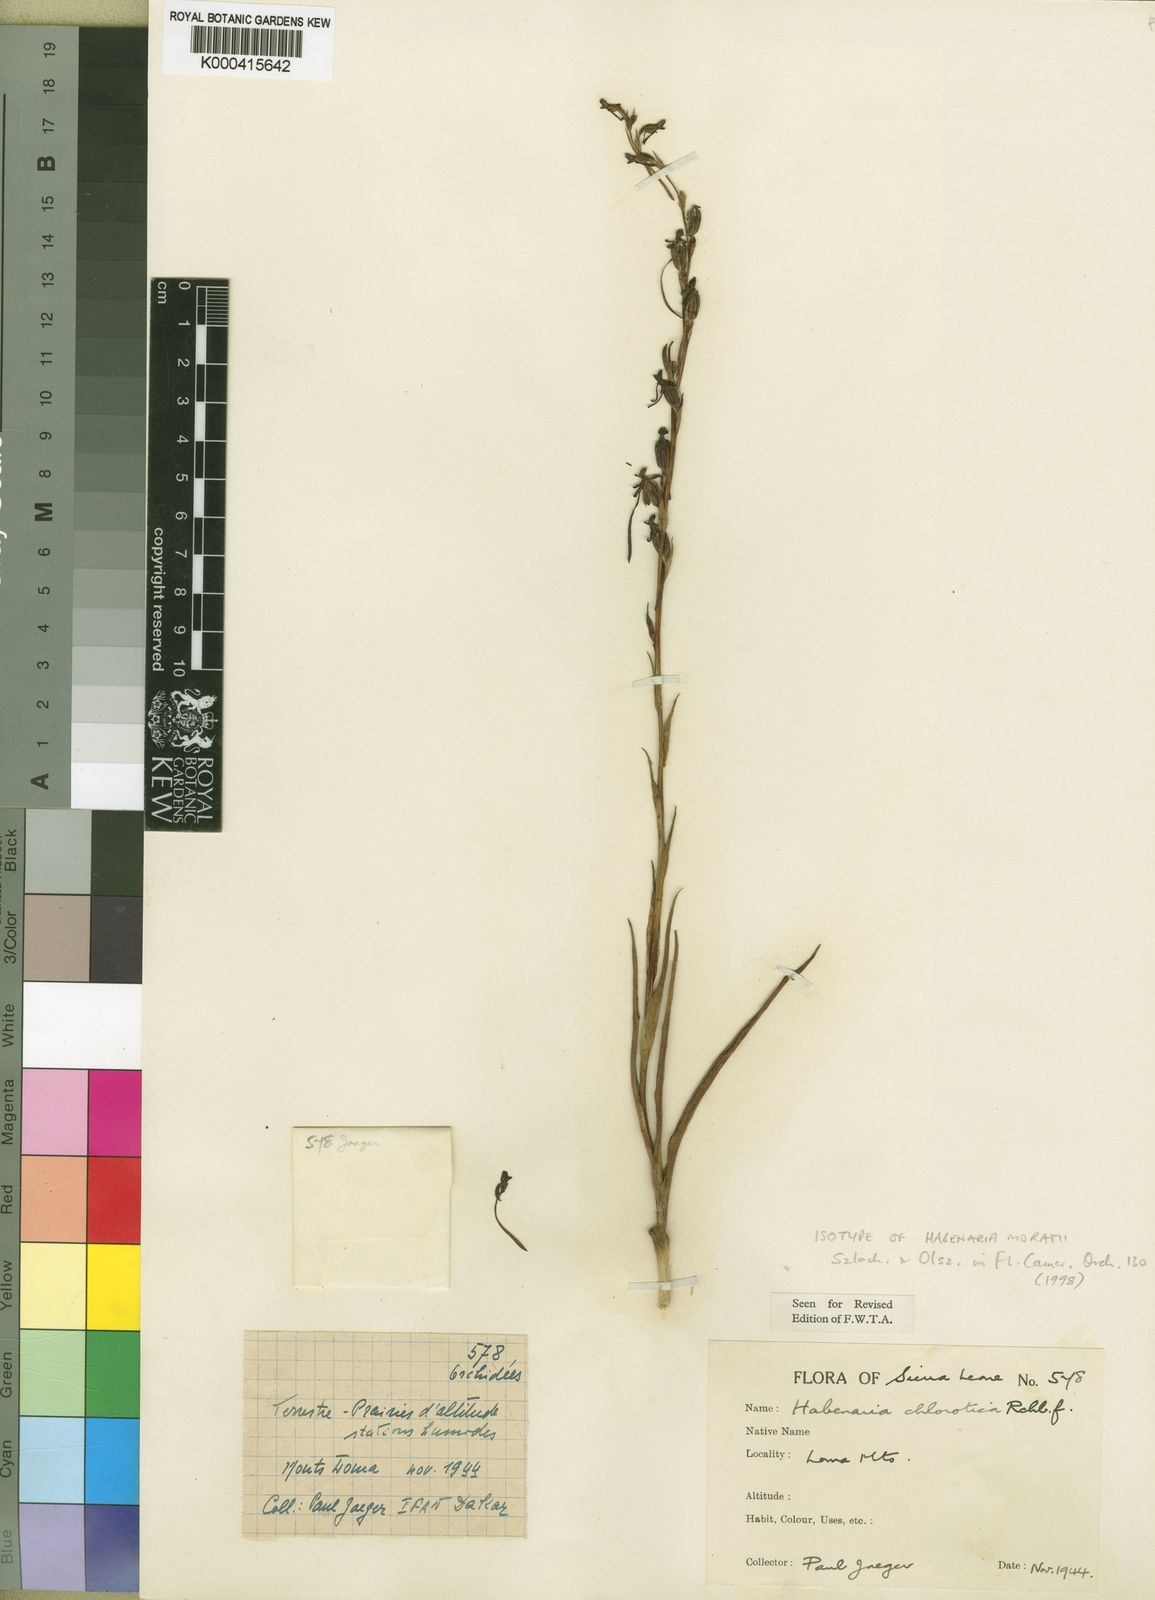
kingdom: Plantae
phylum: Tracheophyta
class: Liliopsida
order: Asparagales
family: Orchidaceae
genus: Habenaria
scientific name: Habenaria filicornis
